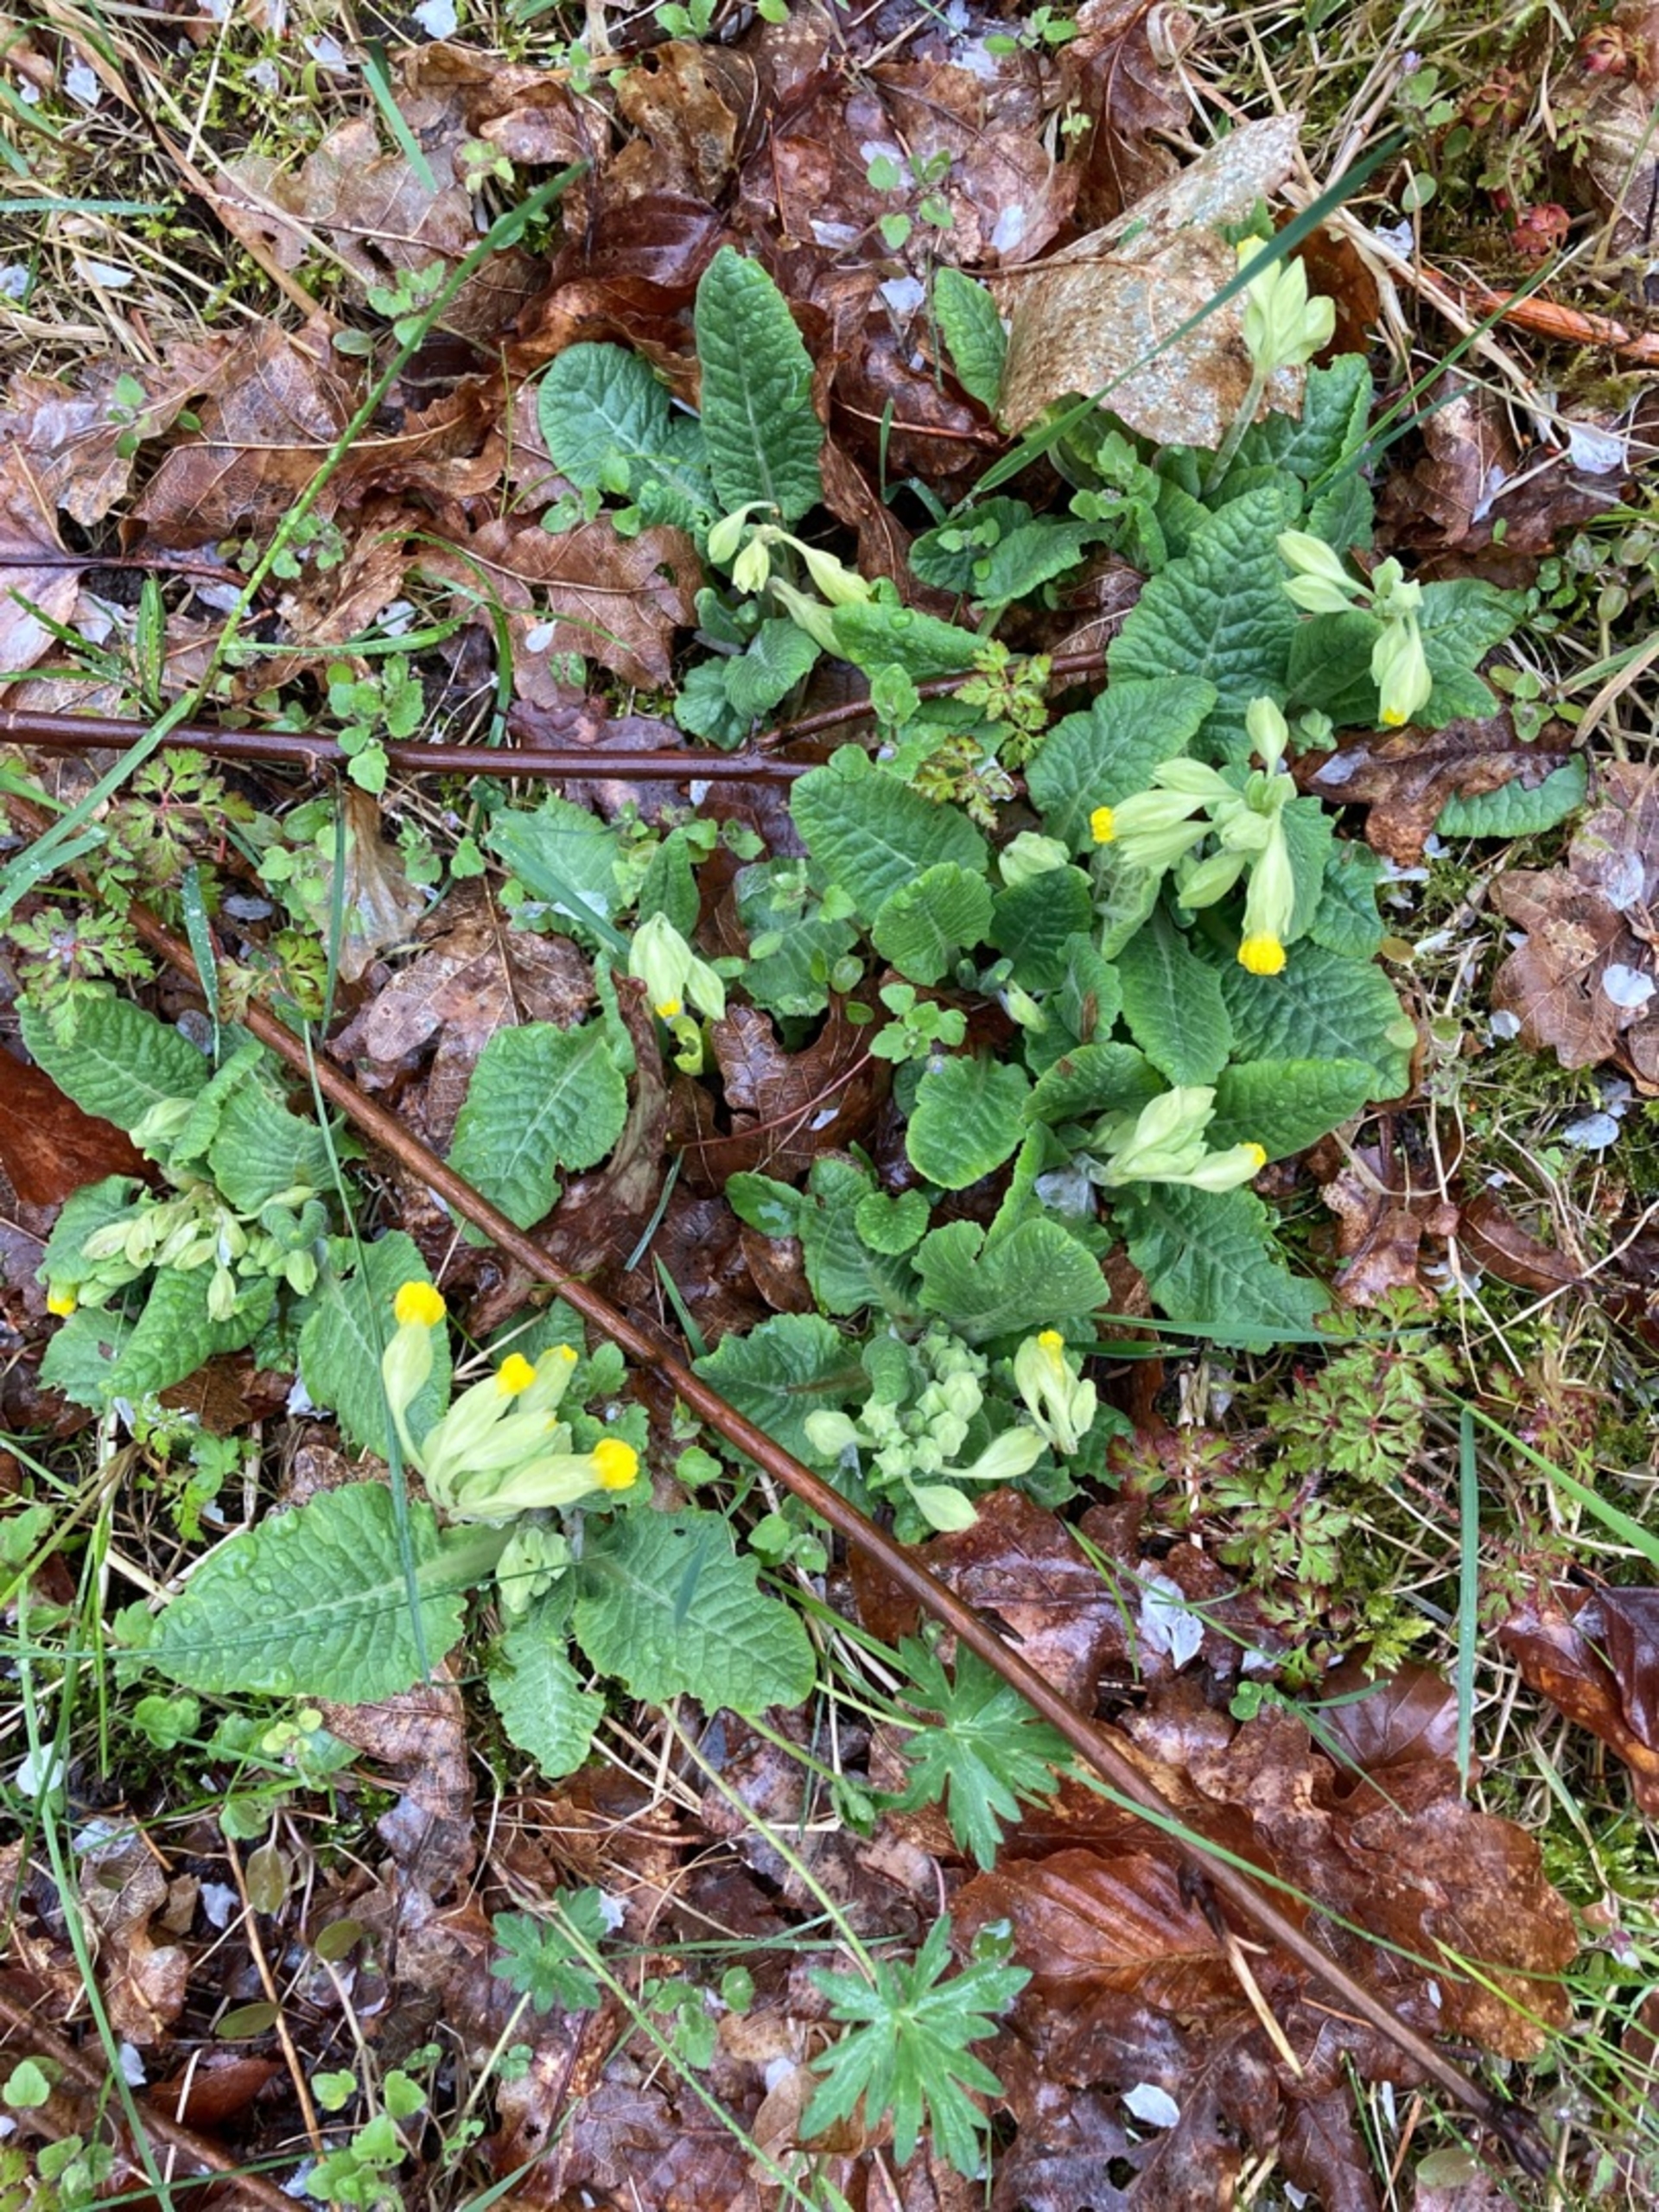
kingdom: Plantae
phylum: Tracheophyta
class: Magnoliopsida
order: Ericales
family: Primulaceae
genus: Primula
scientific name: Primula veris
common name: Hulkravet kodriver
